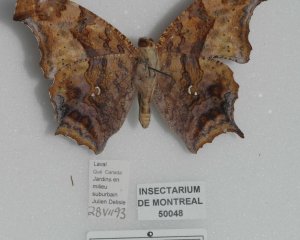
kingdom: Animalia
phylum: Arthropoda
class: Insecta
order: Lepidoptera
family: Nymphalidae
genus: Polygonia
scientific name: Polygonia interrogationis
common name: Question Mark
